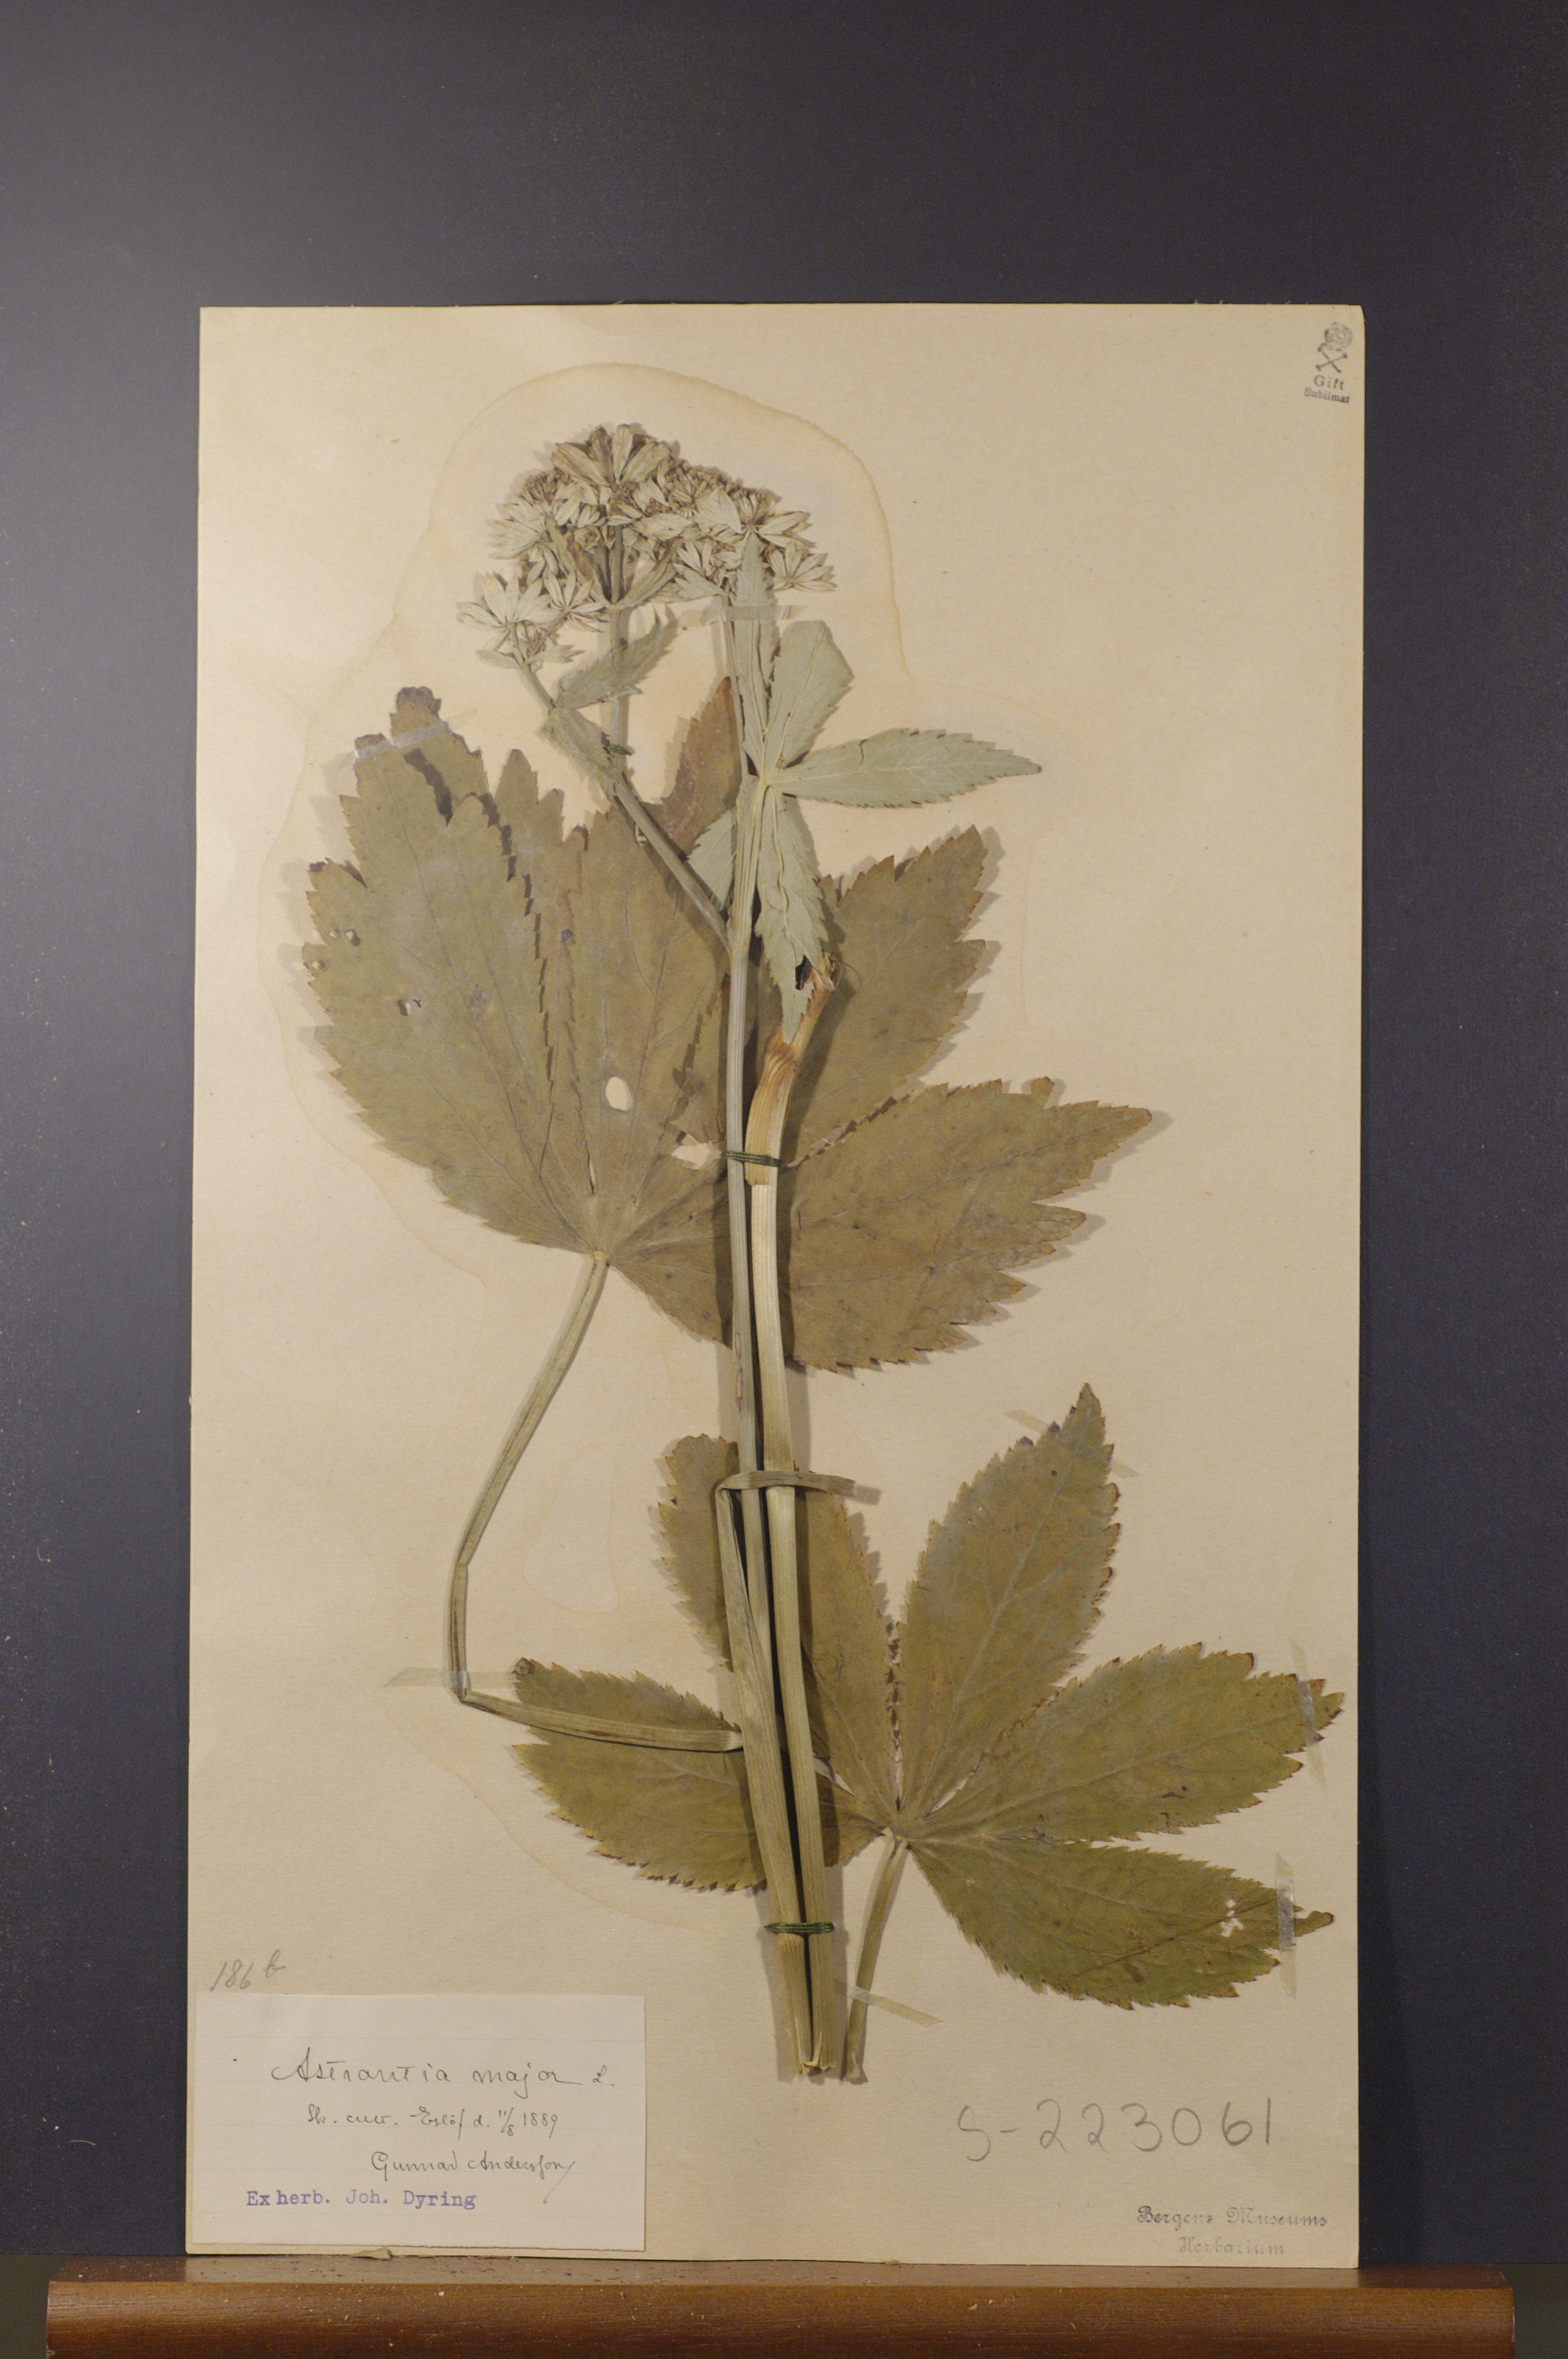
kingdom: Plantae
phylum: Tracheophyta
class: Magnoliopsida
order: Apiales
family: Apiaceae
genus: Astrantia
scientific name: Astrantia major
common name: Greater masterwort
